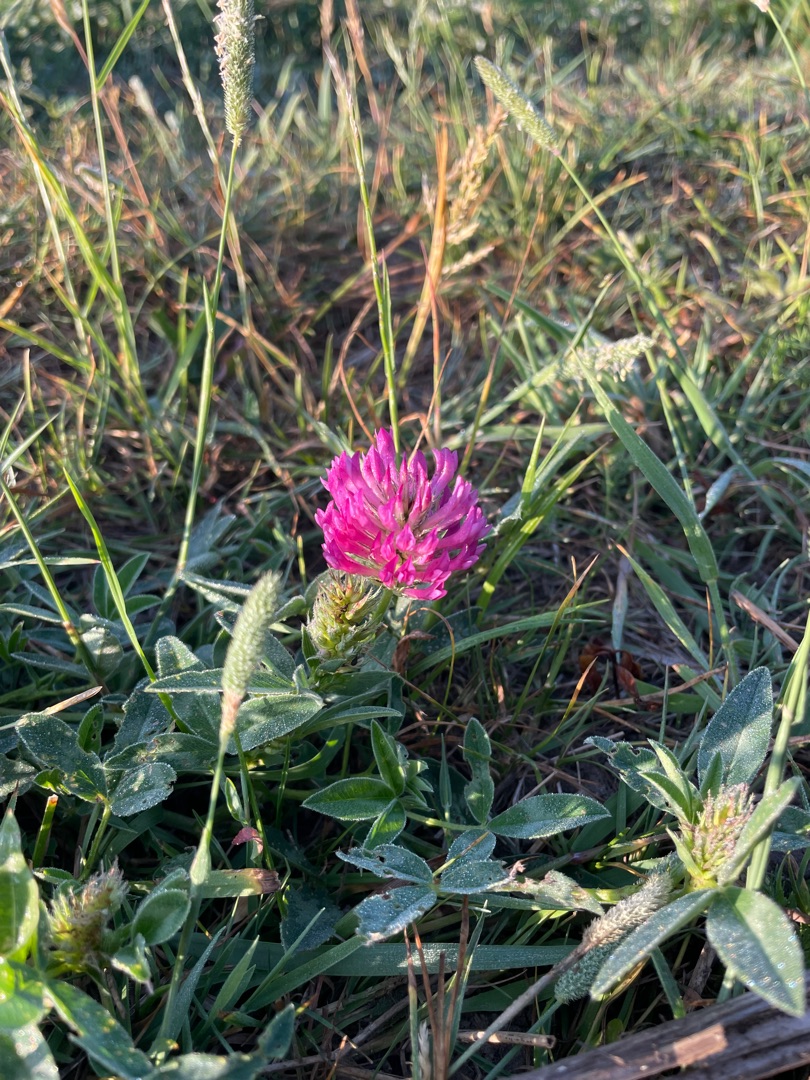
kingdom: Plantae
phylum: Tracheophyta
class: Magnoliopsida
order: Fabales
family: Fabaceae
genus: Trifolium
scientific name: Trifolium medium
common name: Bugtet kløver
